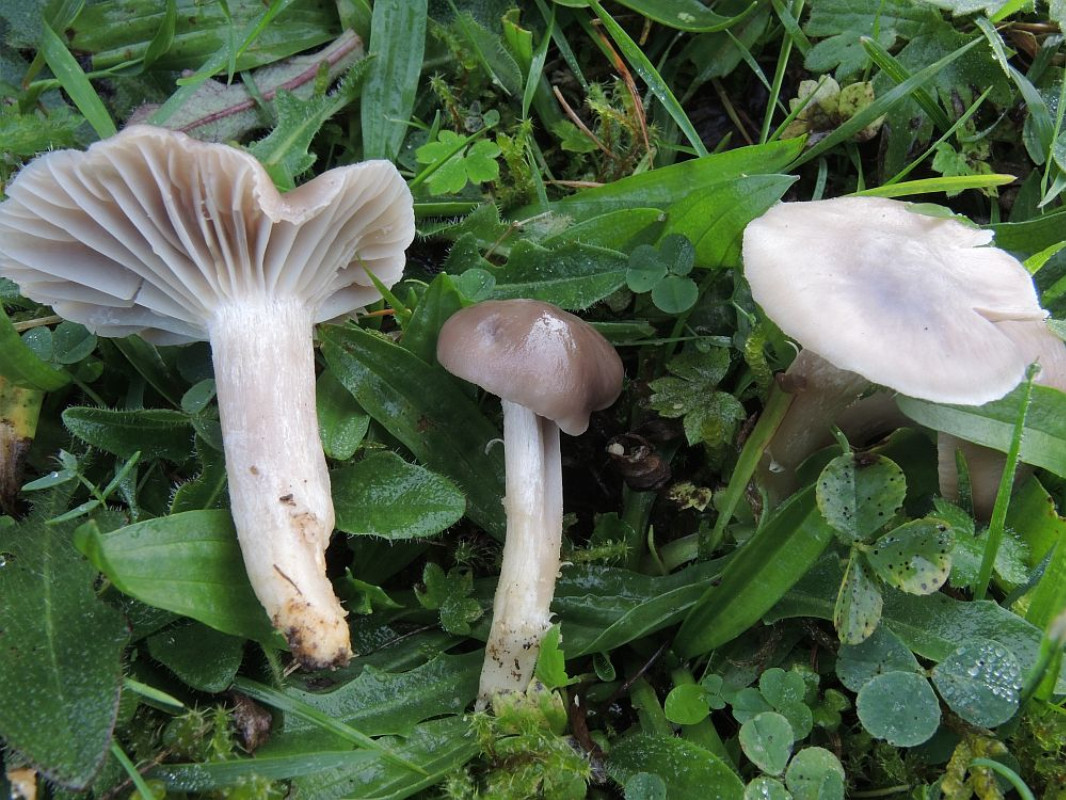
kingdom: Fungi
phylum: Basidiomycota
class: Agaricomycetes
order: Agaricales
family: Hygrophoraceae
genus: Cuphophyllus
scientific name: Cuphophyllus flavipes
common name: gulfodet vokshat
